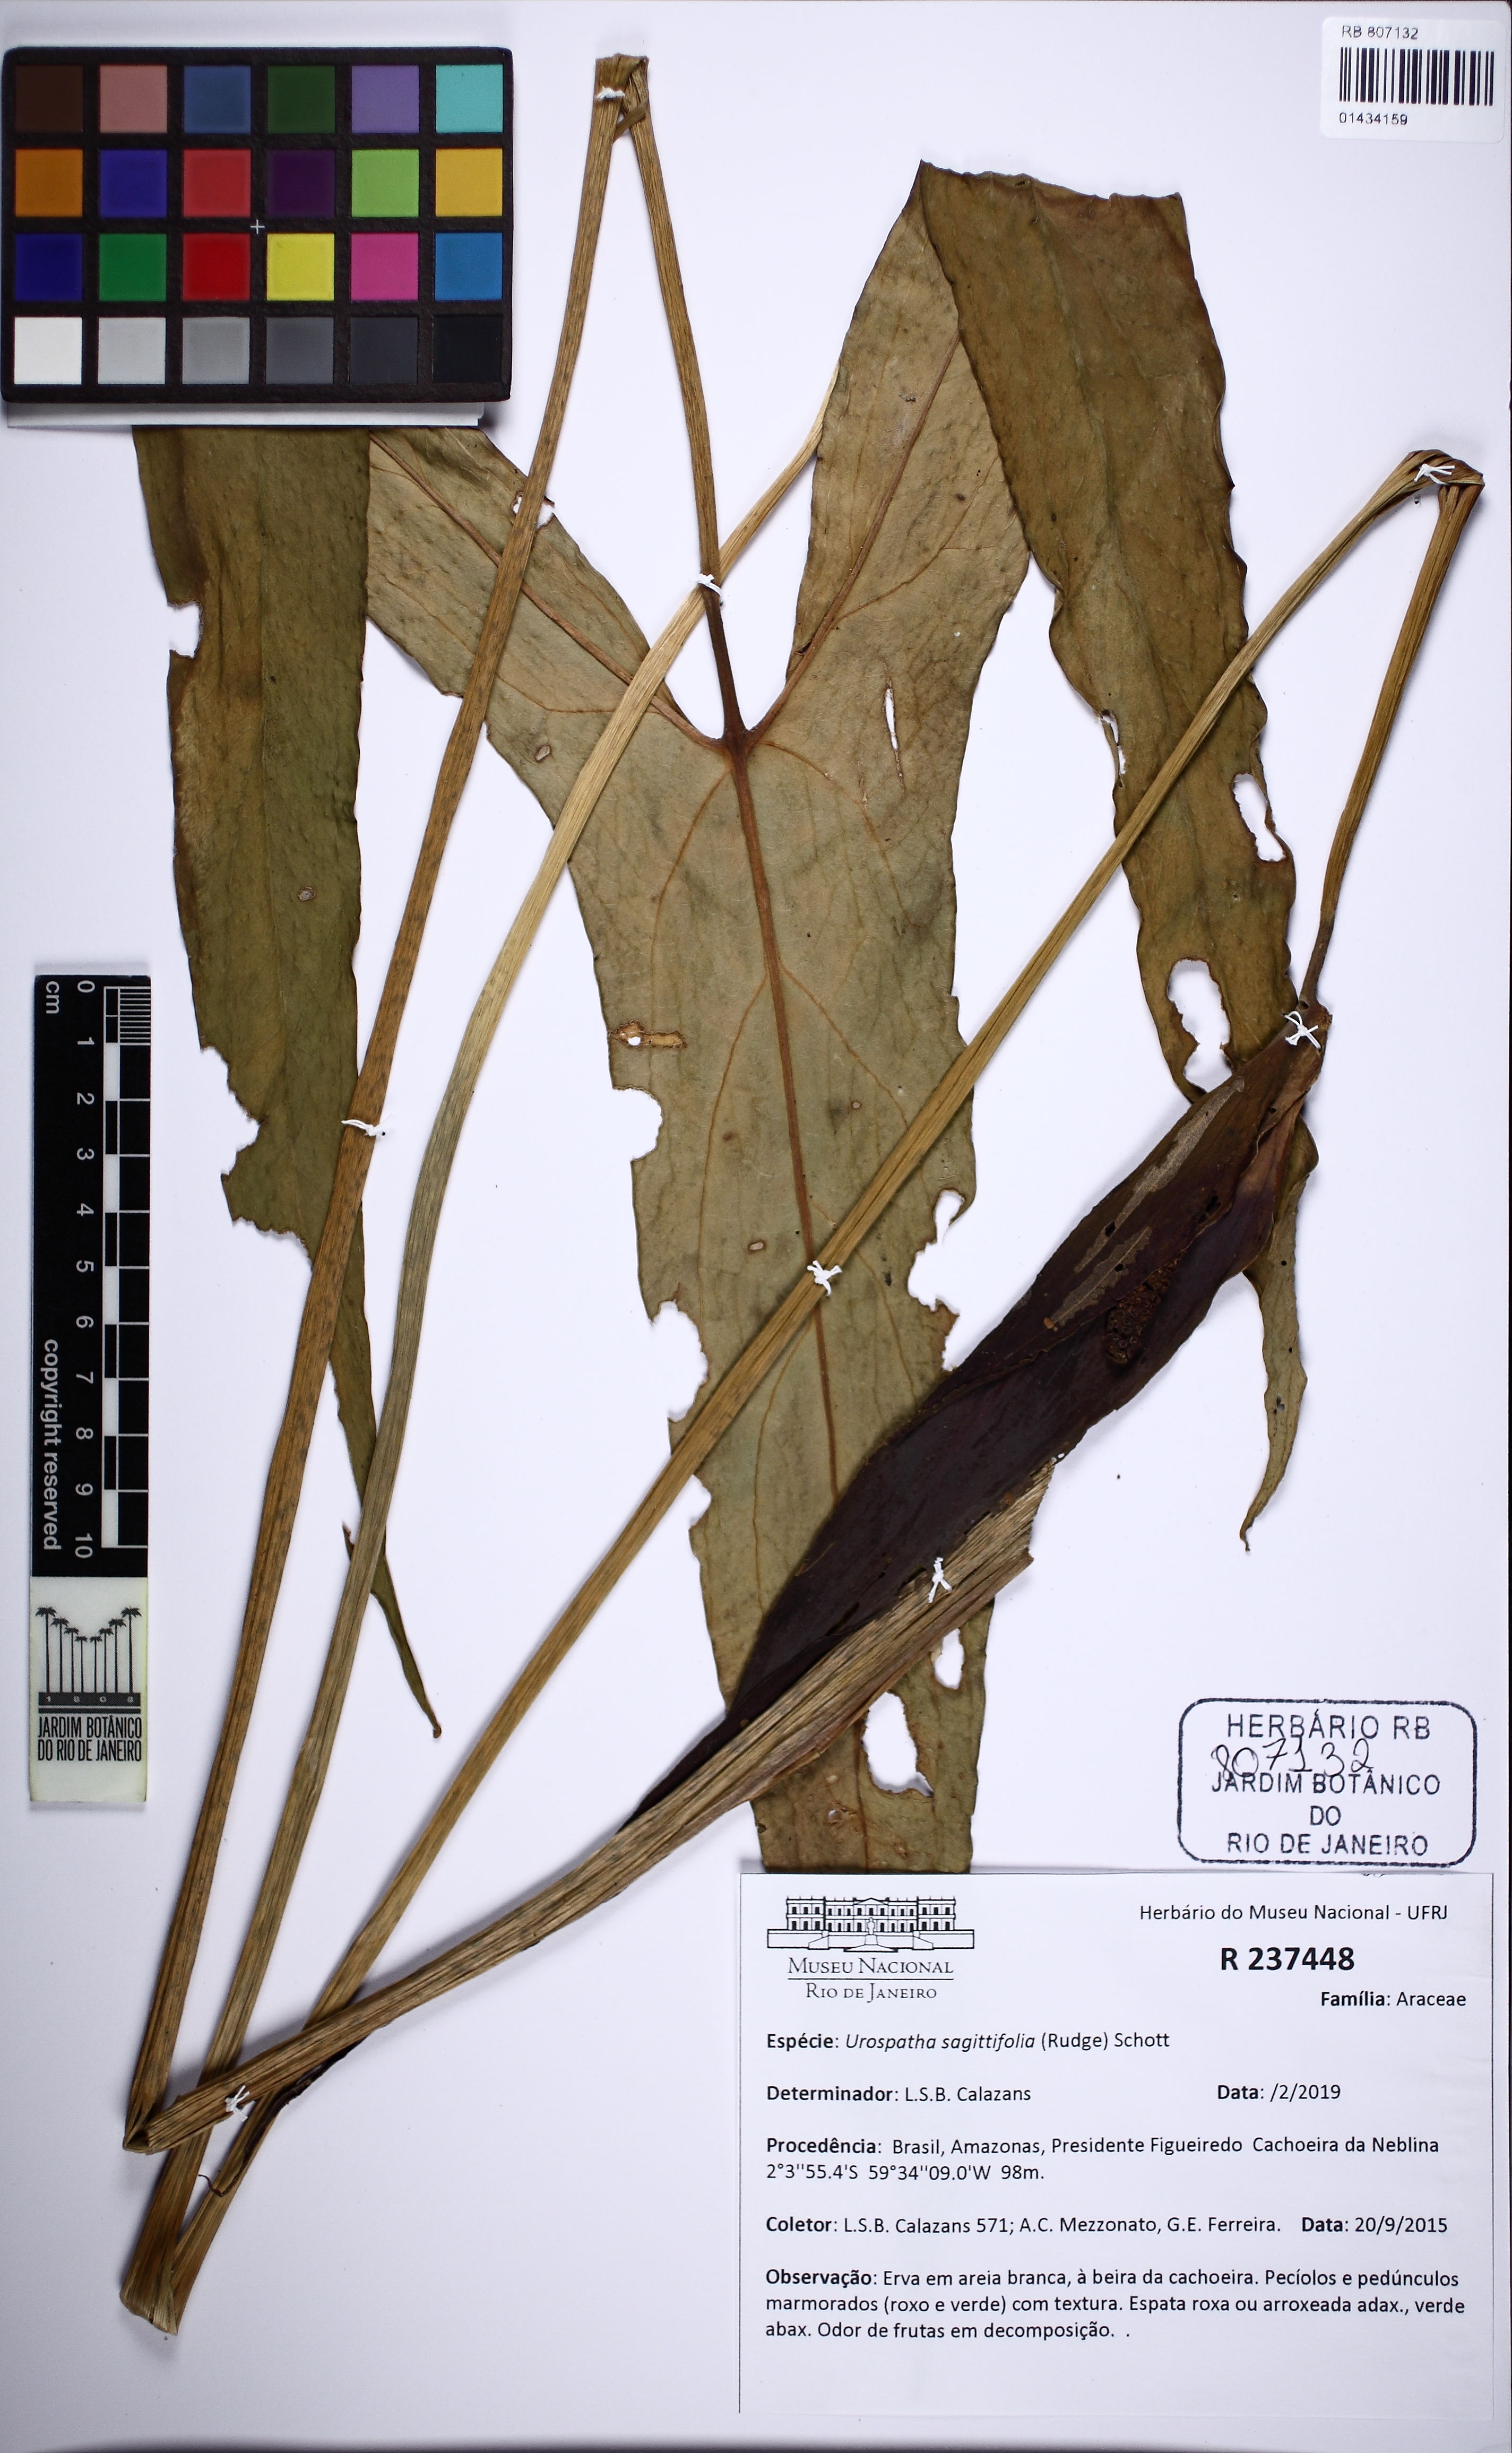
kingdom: Plantae
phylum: Tracheophyta
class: Liliopsida
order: Alismatales
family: Araceae
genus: Urospatha
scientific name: Urospatha sagittifolia
